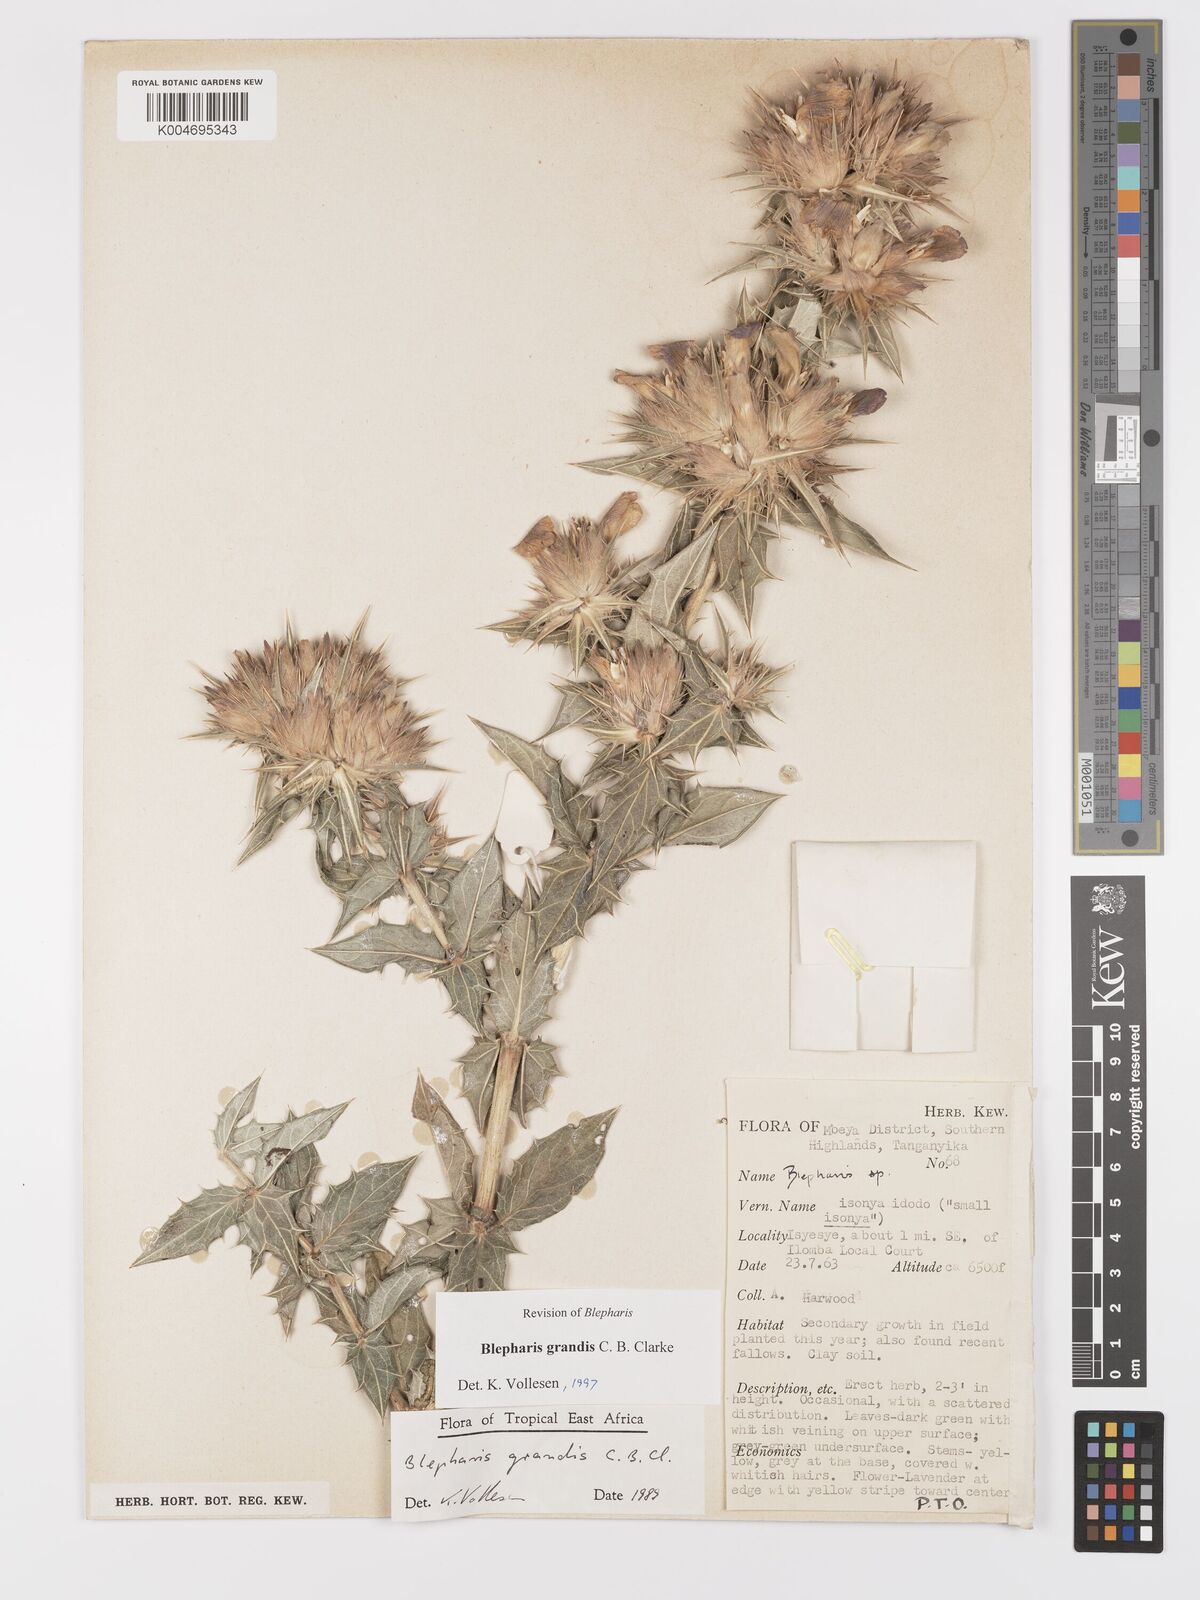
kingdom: Plantae
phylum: Tracheophyta
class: Magnoliopsida
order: Lamiales
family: Acanthaceae
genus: Blepharis
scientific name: Blepharis grandis
